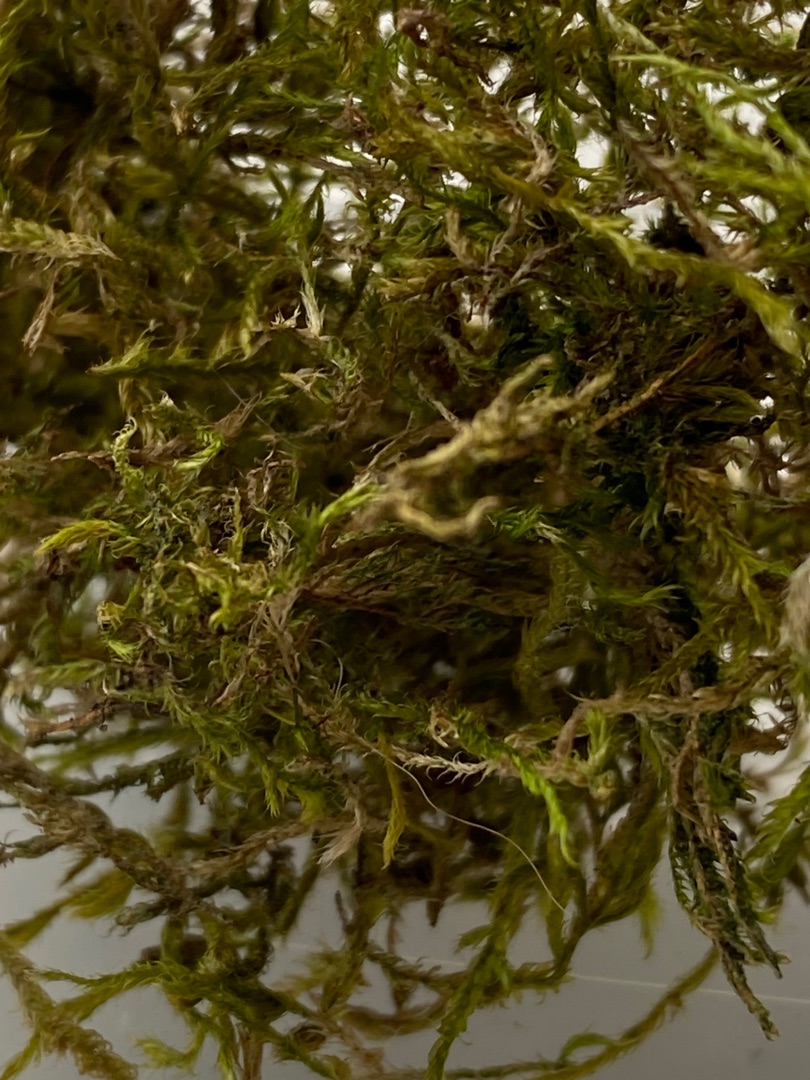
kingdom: Plantae
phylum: Bryophyta
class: Bryopsida
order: Hypnales
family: Hypnaceae
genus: Hypnum
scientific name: Hypnum
